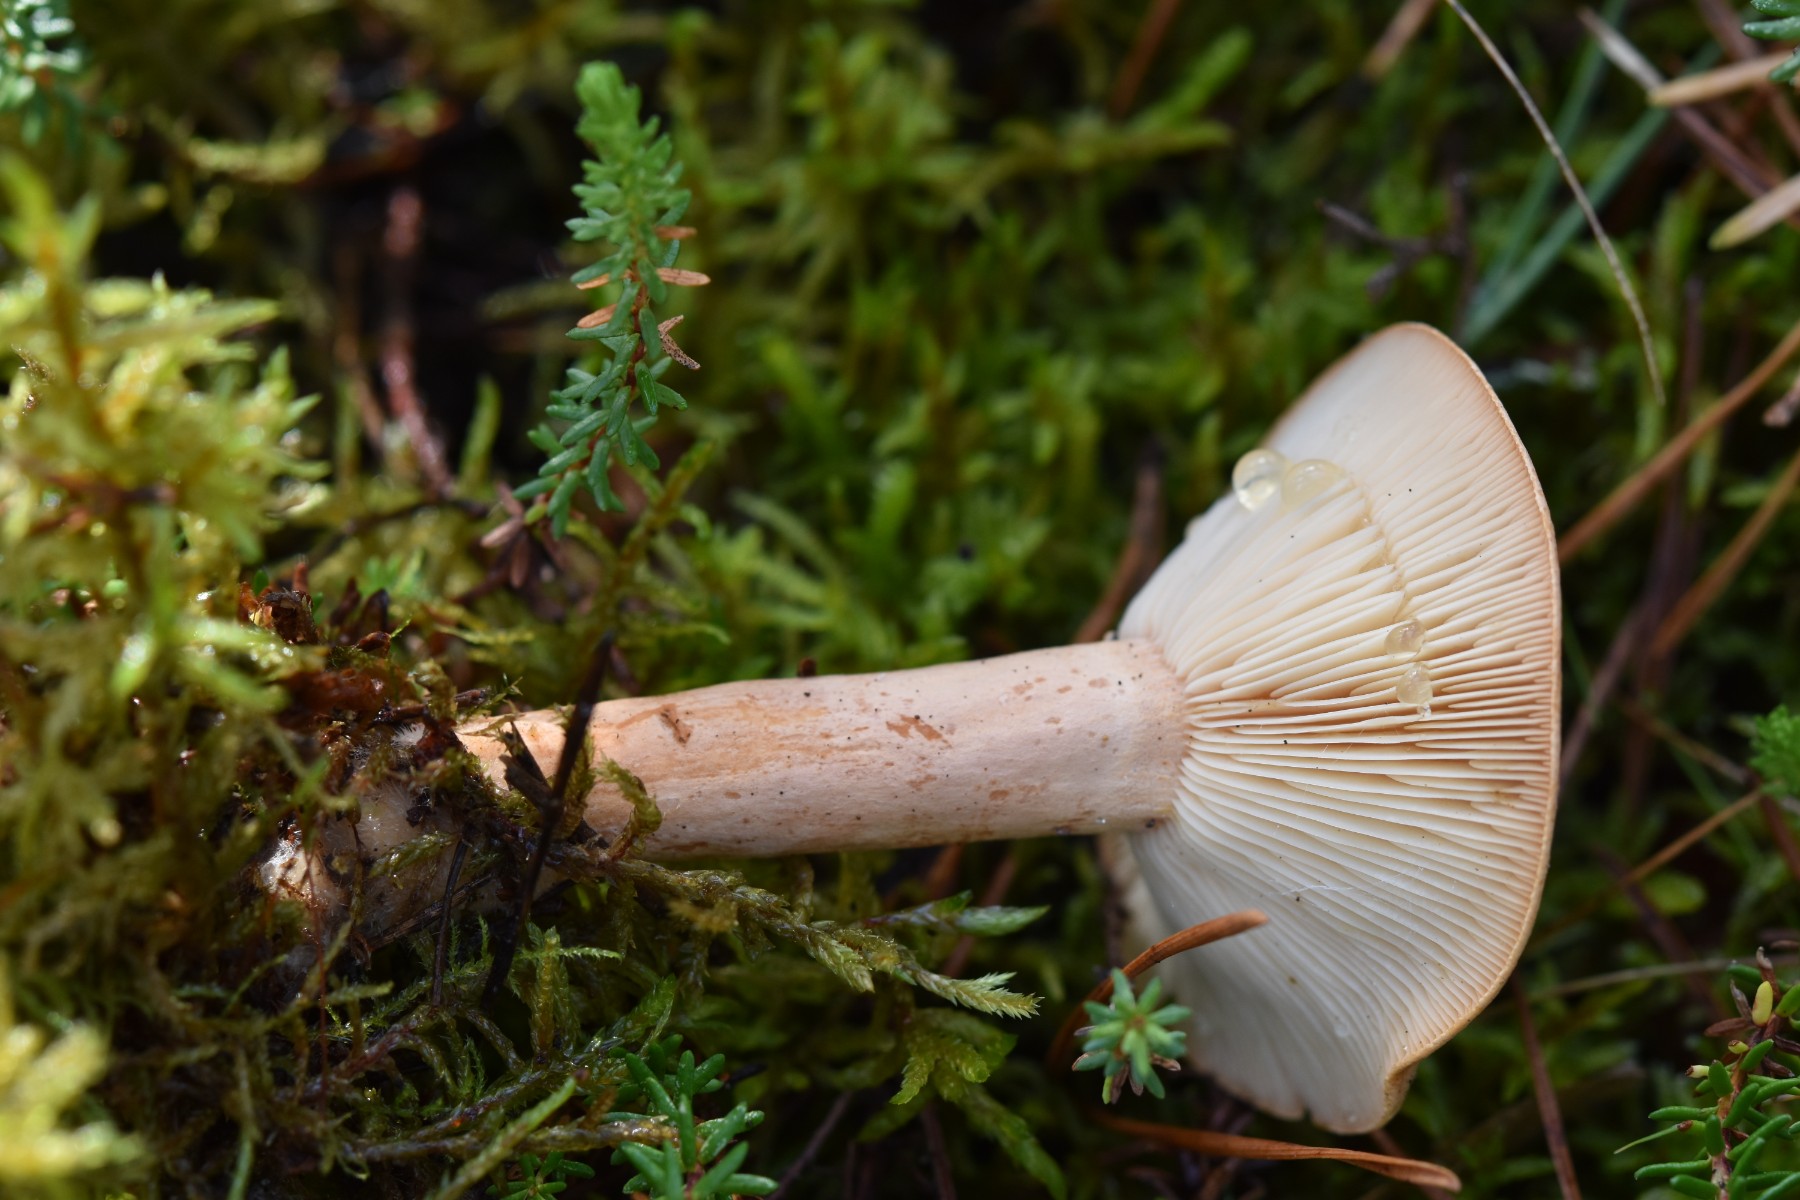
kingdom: Fungi
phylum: Basidiomycota
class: Agaricomycetes
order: Russulales
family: Russulaceae
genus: Lactarius
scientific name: Lactarius helvus
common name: mose-mælkehat
